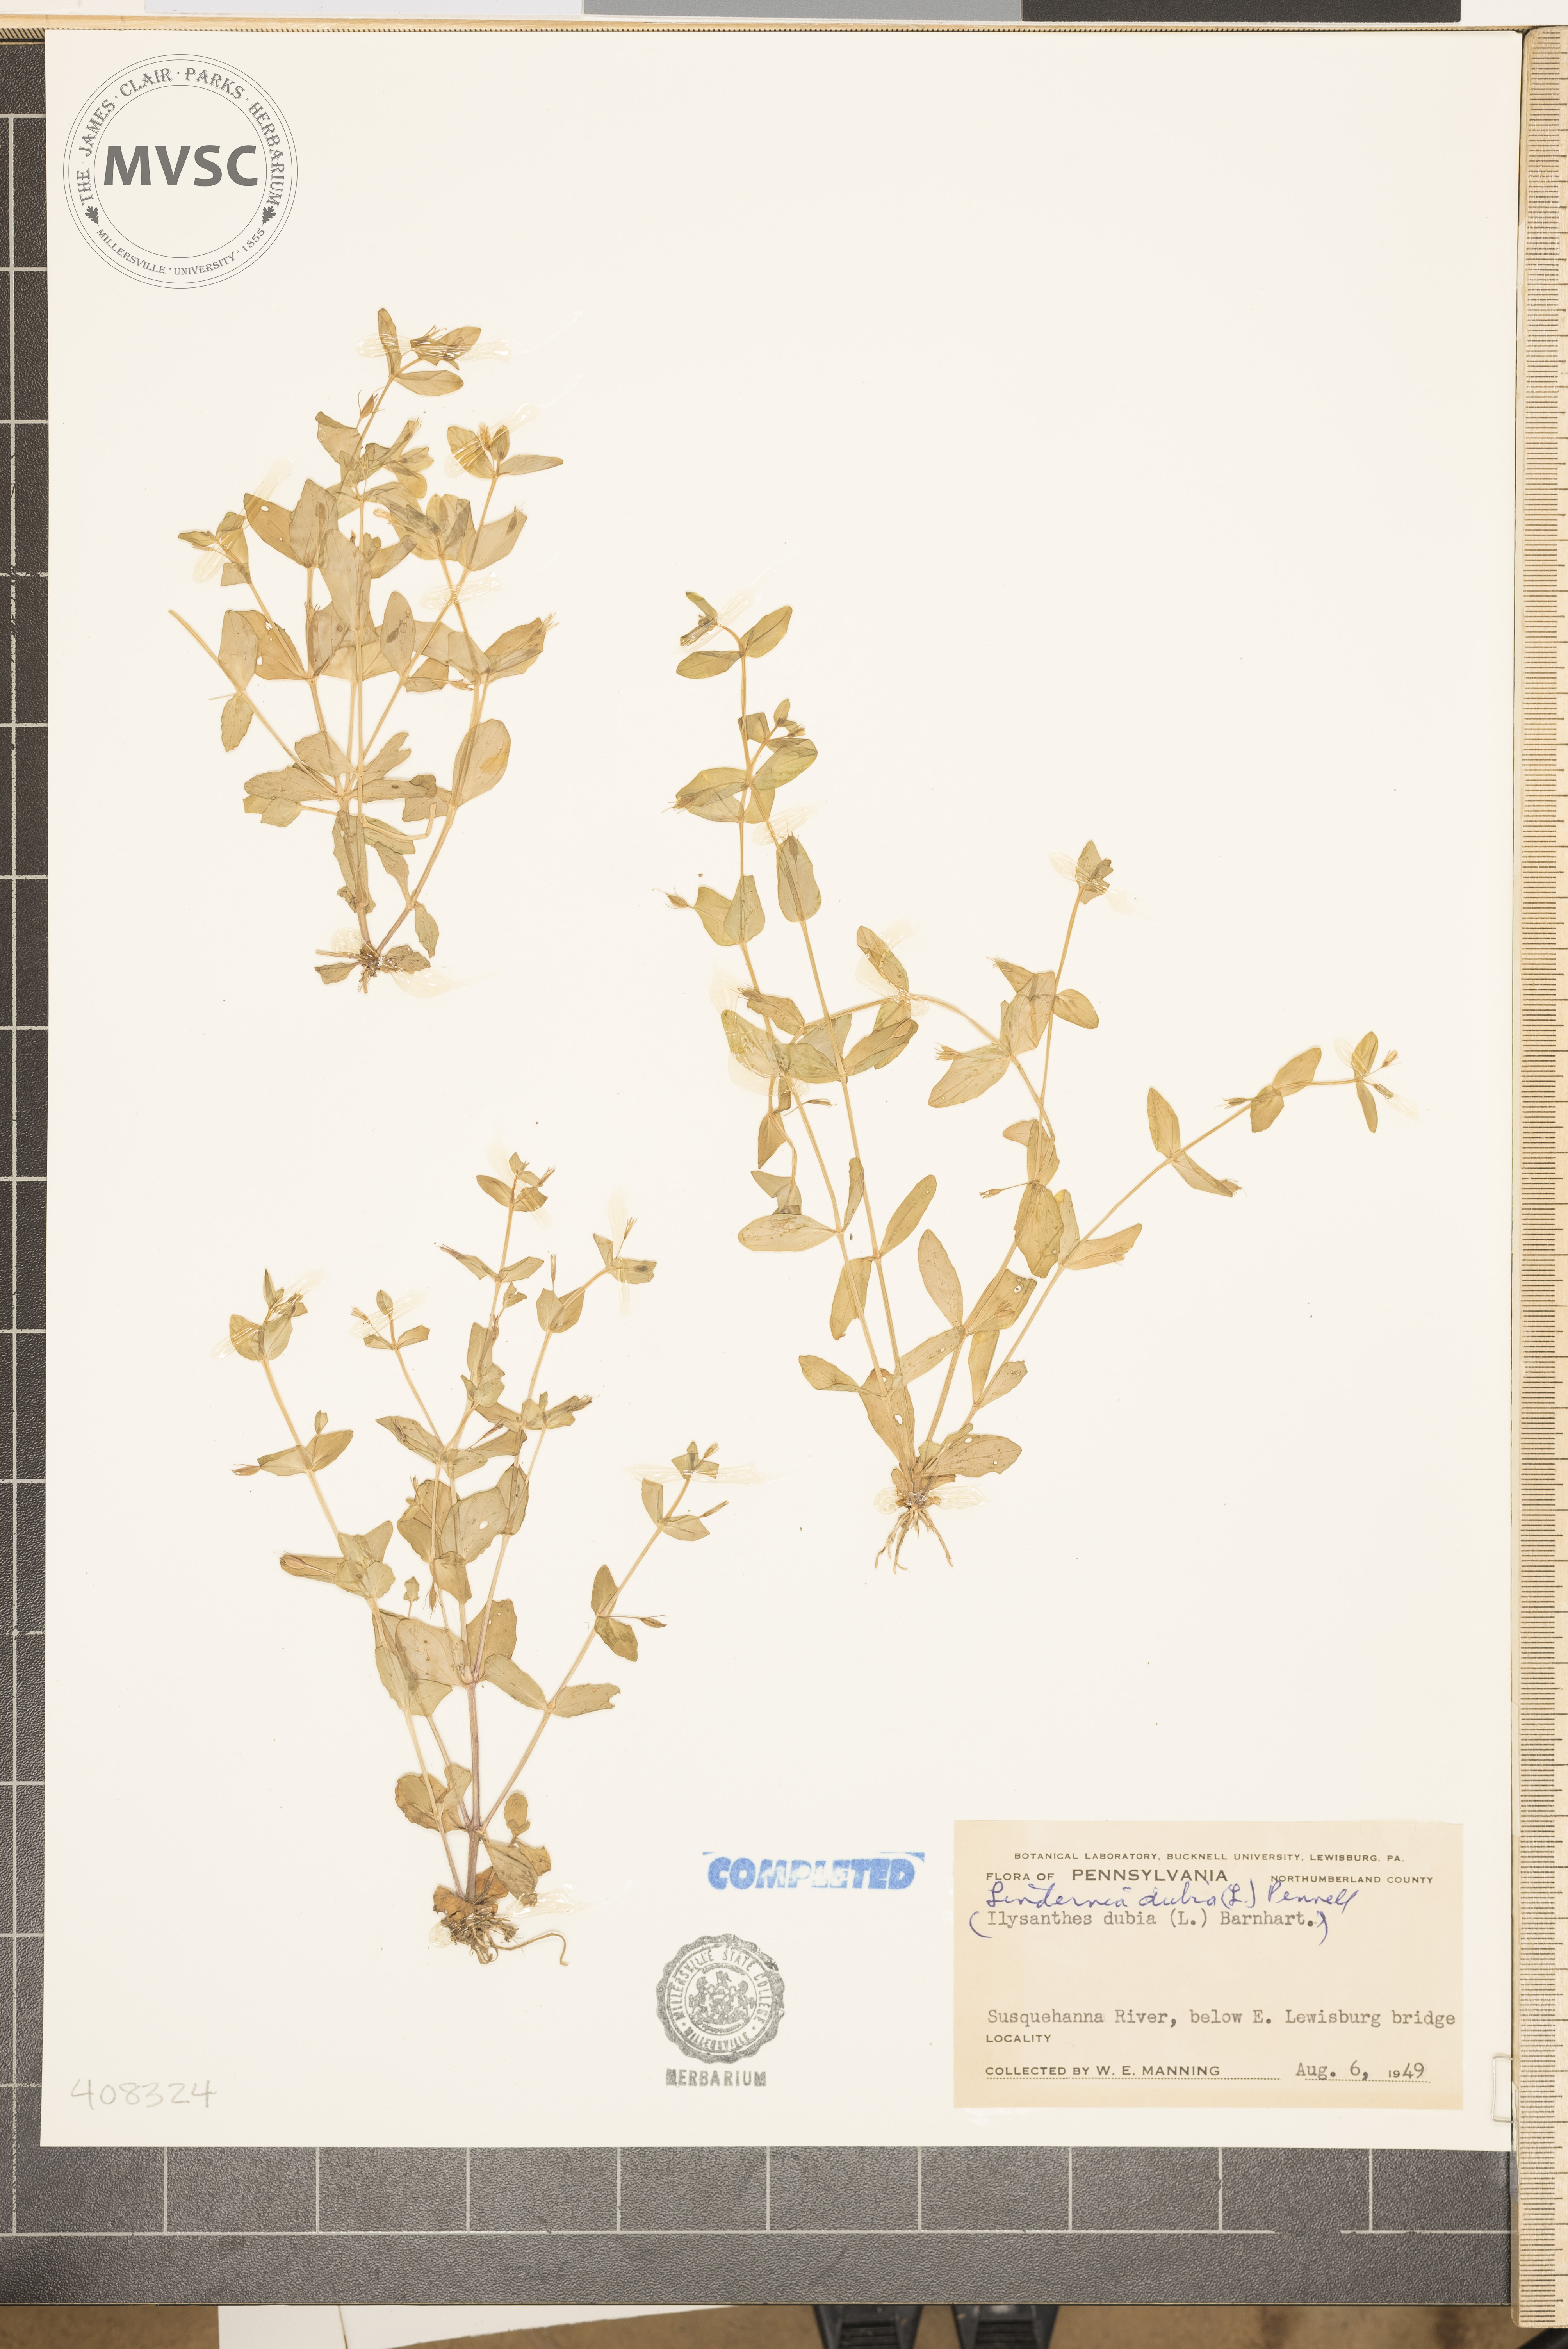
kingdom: Plantae
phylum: Tracheophyta
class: Magnoliopsida
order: Lamiales
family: Linderniaceae
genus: Lindernia
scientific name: Lindernia dubia
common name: Annual false pimpernel
